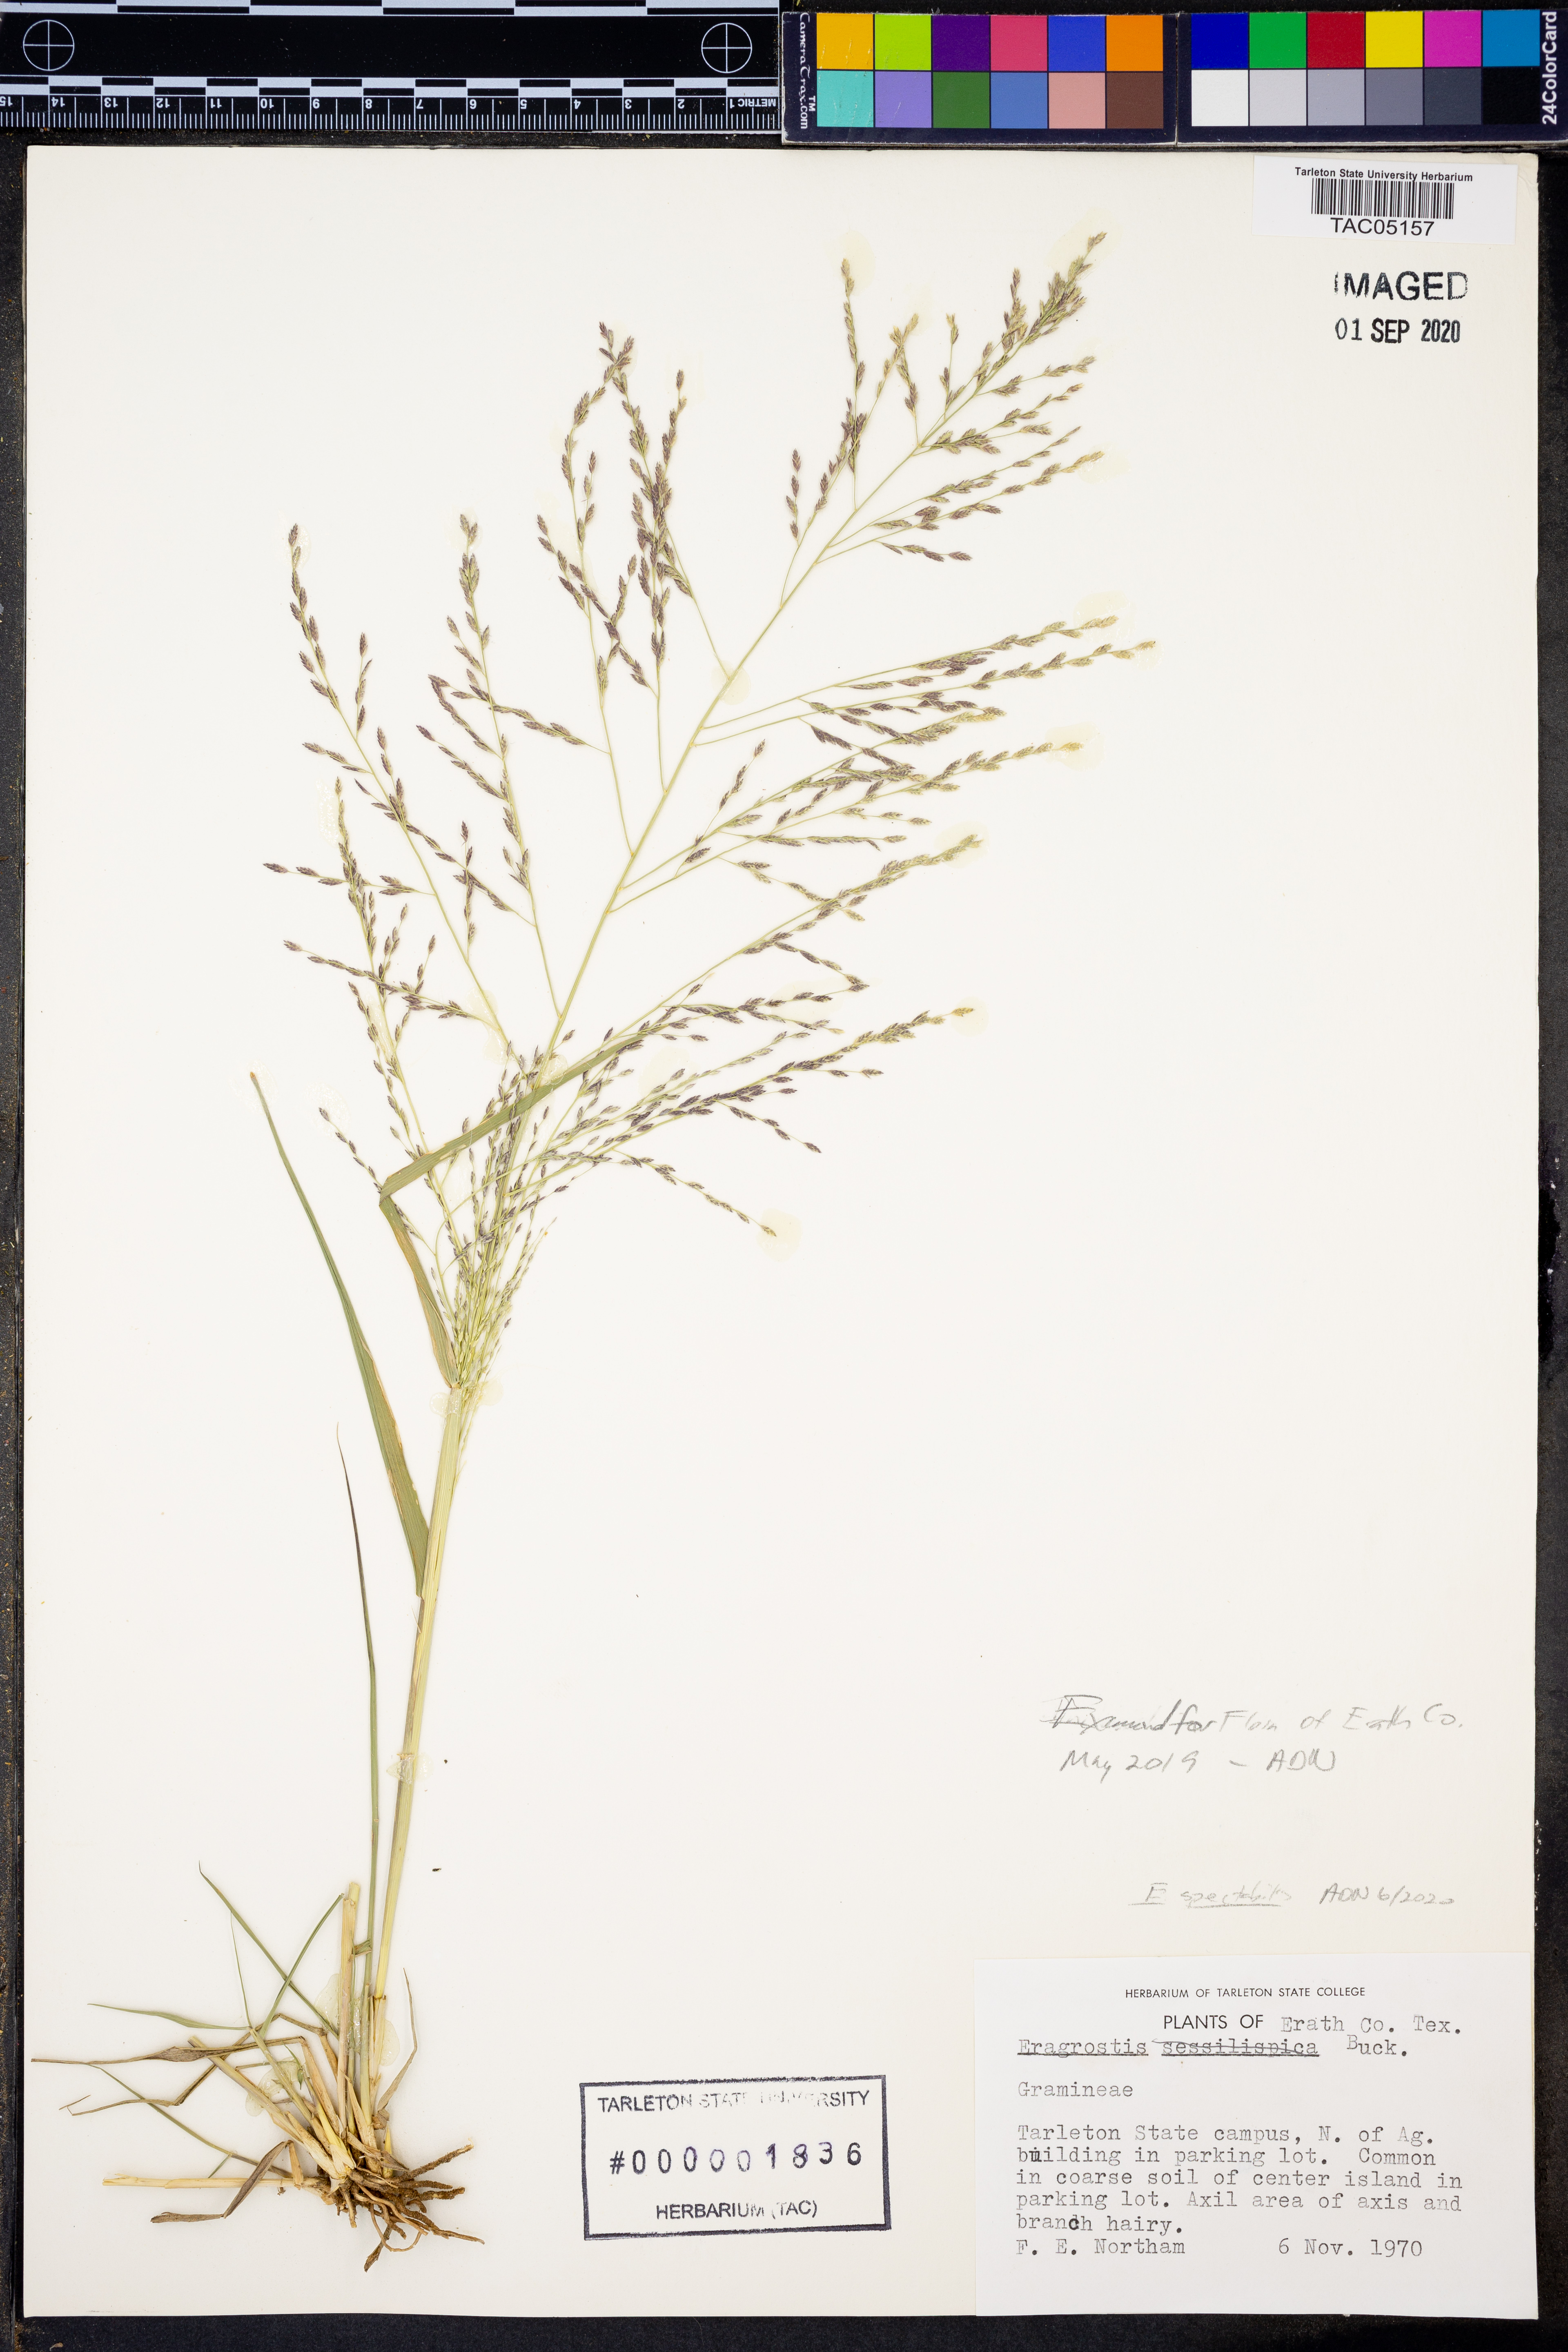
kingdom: Plantae
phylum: Tracheophyta
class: Liliopsida
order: Poales
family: Poaceae
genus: Eragrostis
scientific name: Eragrostis spectabilis
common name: Petticoat-climber
